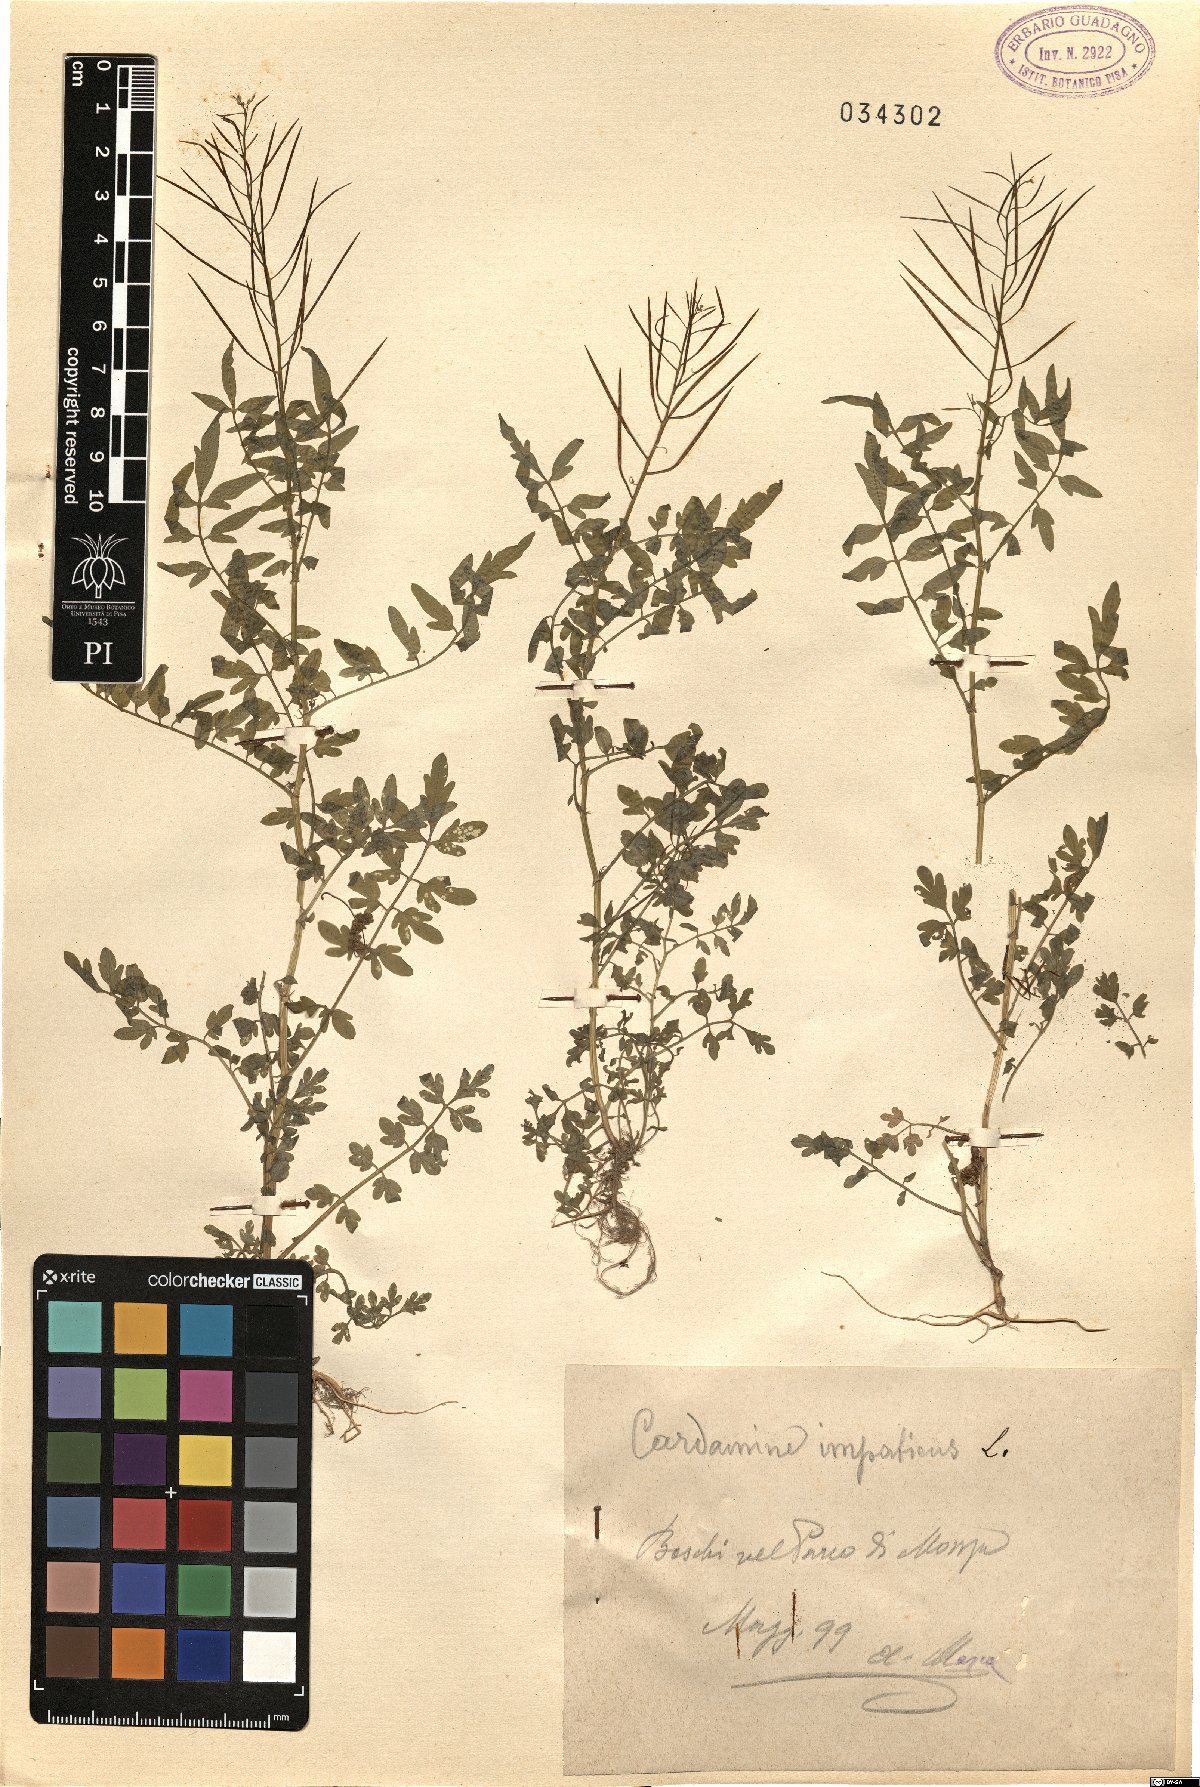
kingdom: Plantae
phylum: Tracheophyta
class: Magnoliopsida
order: Brassicales
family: Brassicaceae
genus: Cardamine
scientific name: Cardamine impatiens
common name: Narrow-leaved bitter-cress
